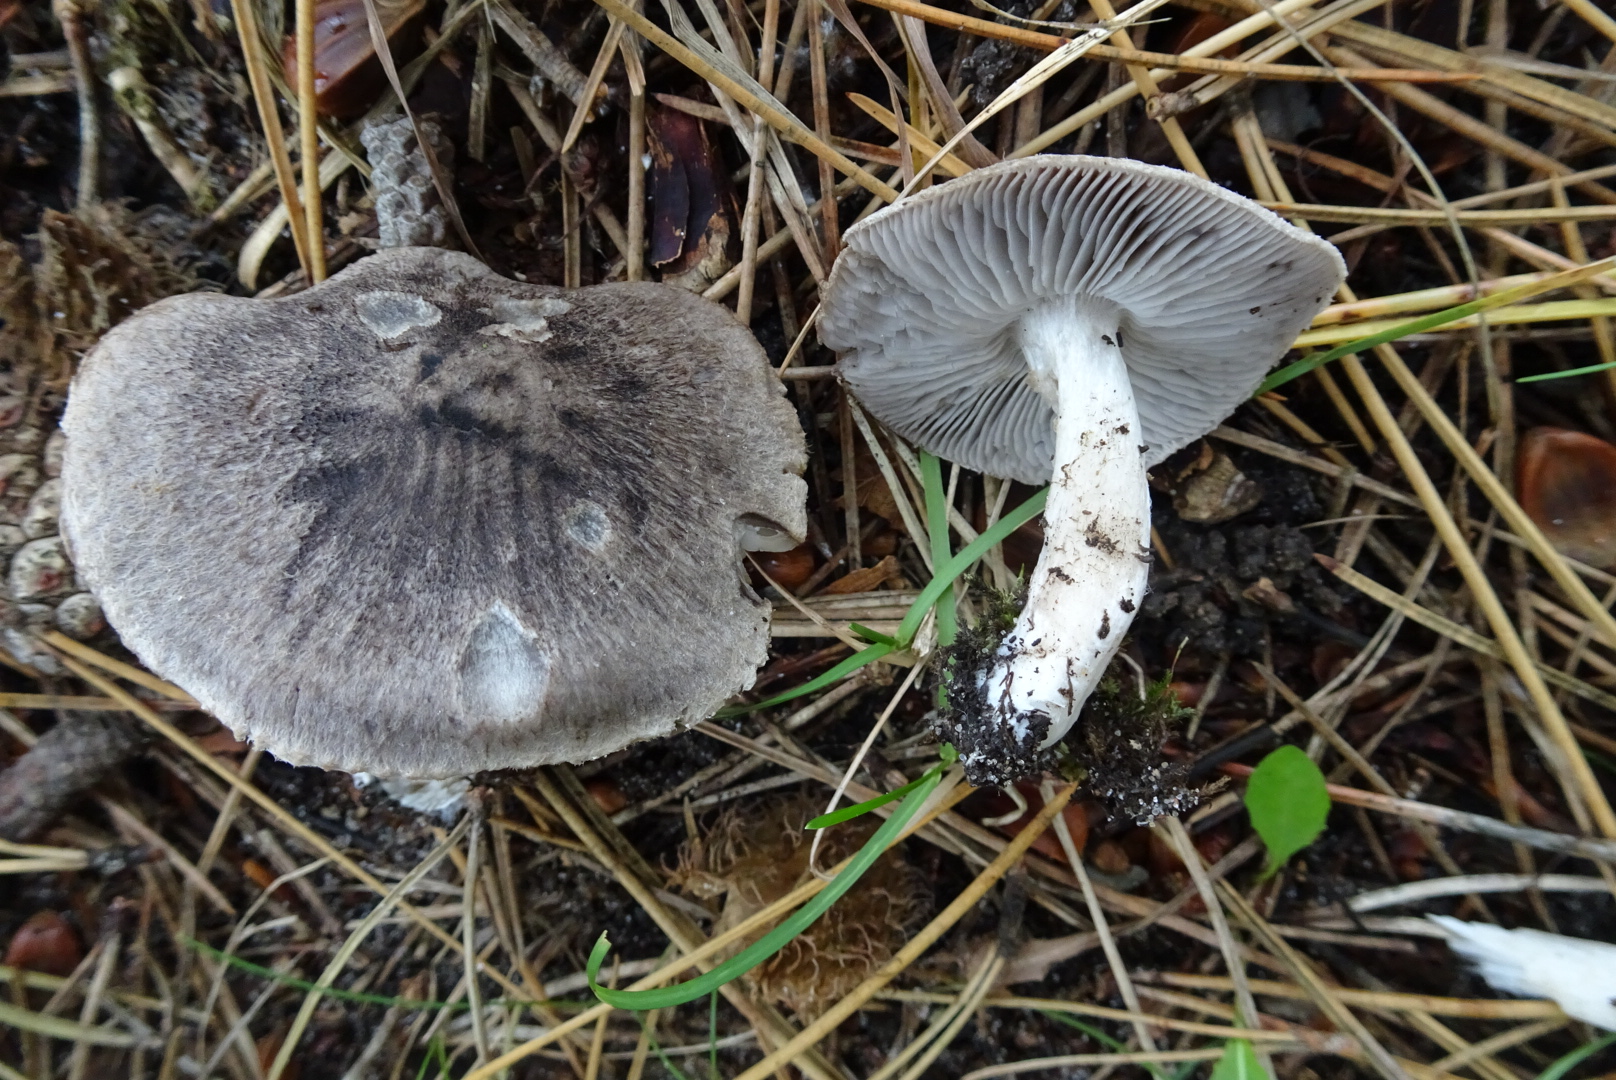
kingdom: Fungi
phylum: Basidiomycota
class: Agaricomycetes
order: Agaricales
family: Tricholomataceae
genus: Tricholoma
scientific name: Tricholoma terreum
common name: jordfarvet ridderhat
